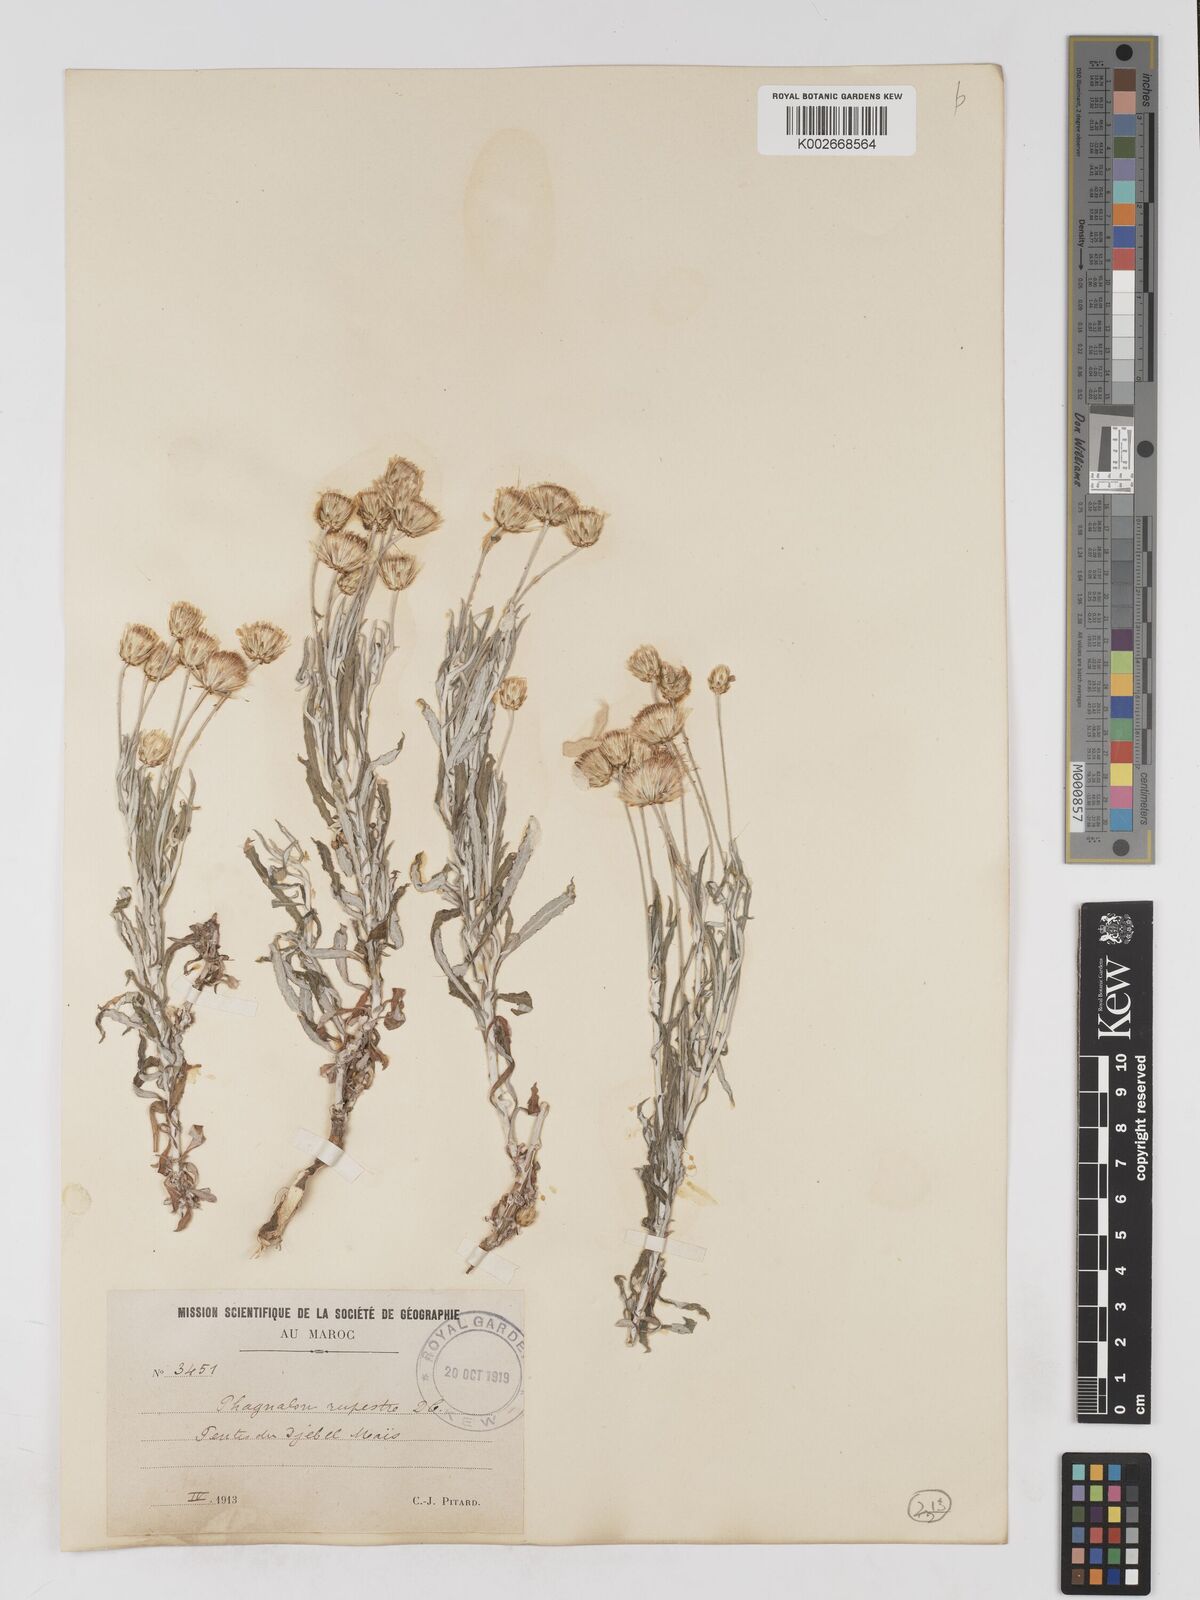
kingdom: Plantae
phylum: Tracheophyta
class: Magnoliopsida
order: Asterales
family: Asteraceae
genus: Phagnalon
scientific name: Phagnalon rupestre
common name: Rock phagnalon
